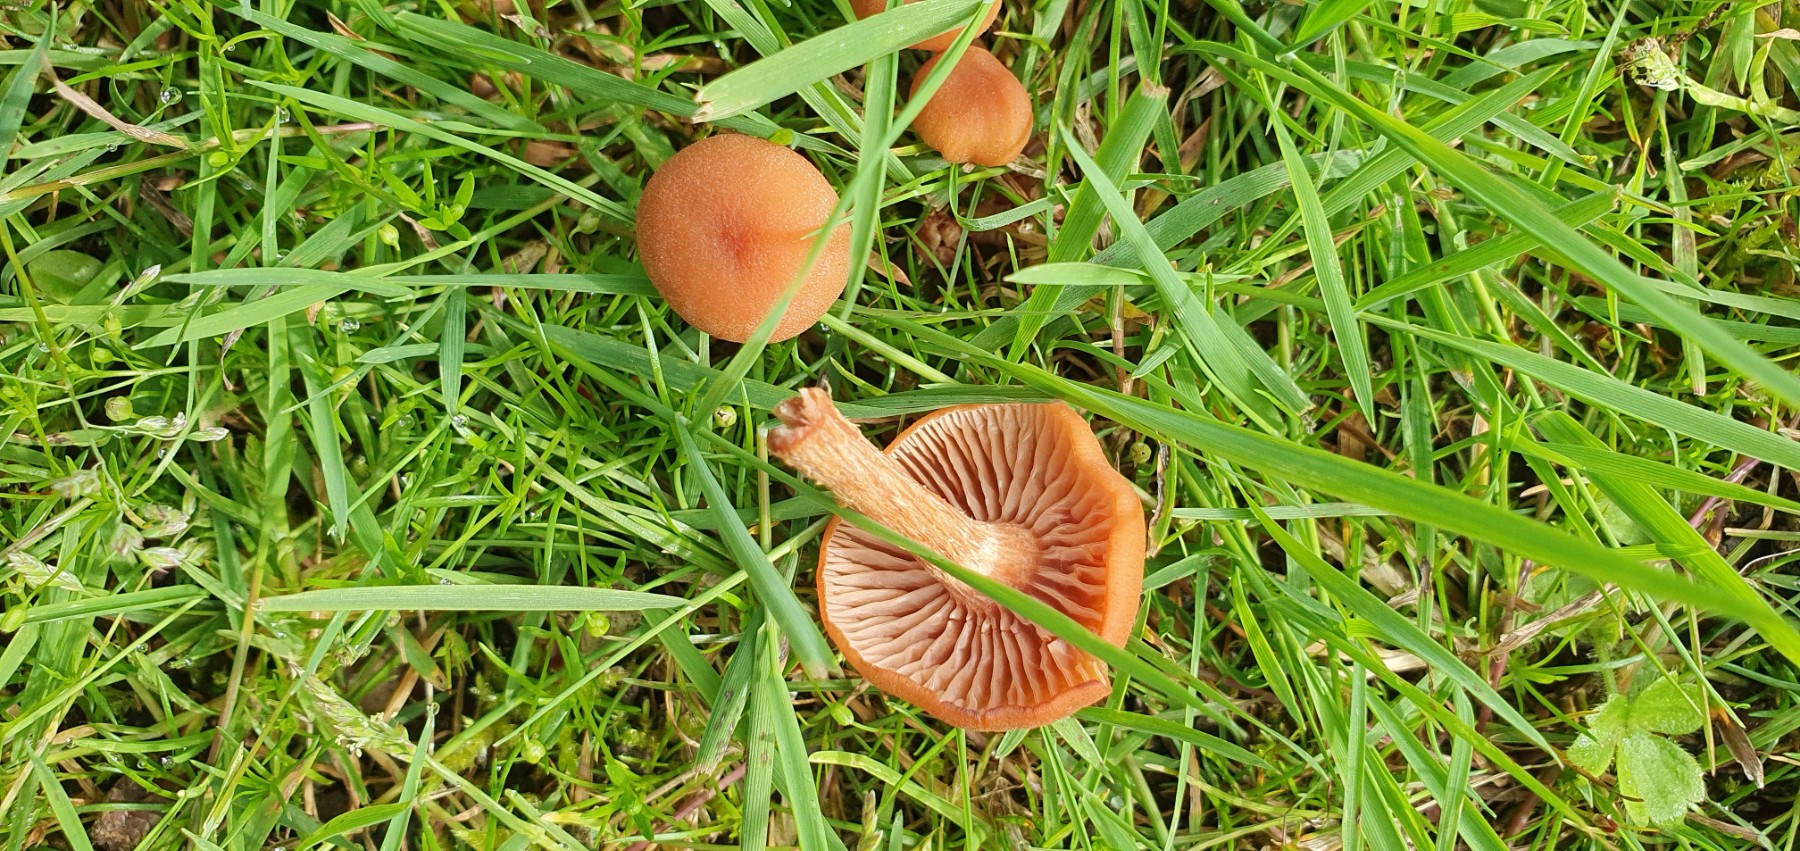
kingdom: Fungi
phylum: Basidiomycota
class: Agaricomycetes
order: Agaricales
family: Hydnangiaceae
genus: Laccaria
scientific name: Laccaria laccata
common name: rød ametysthat
